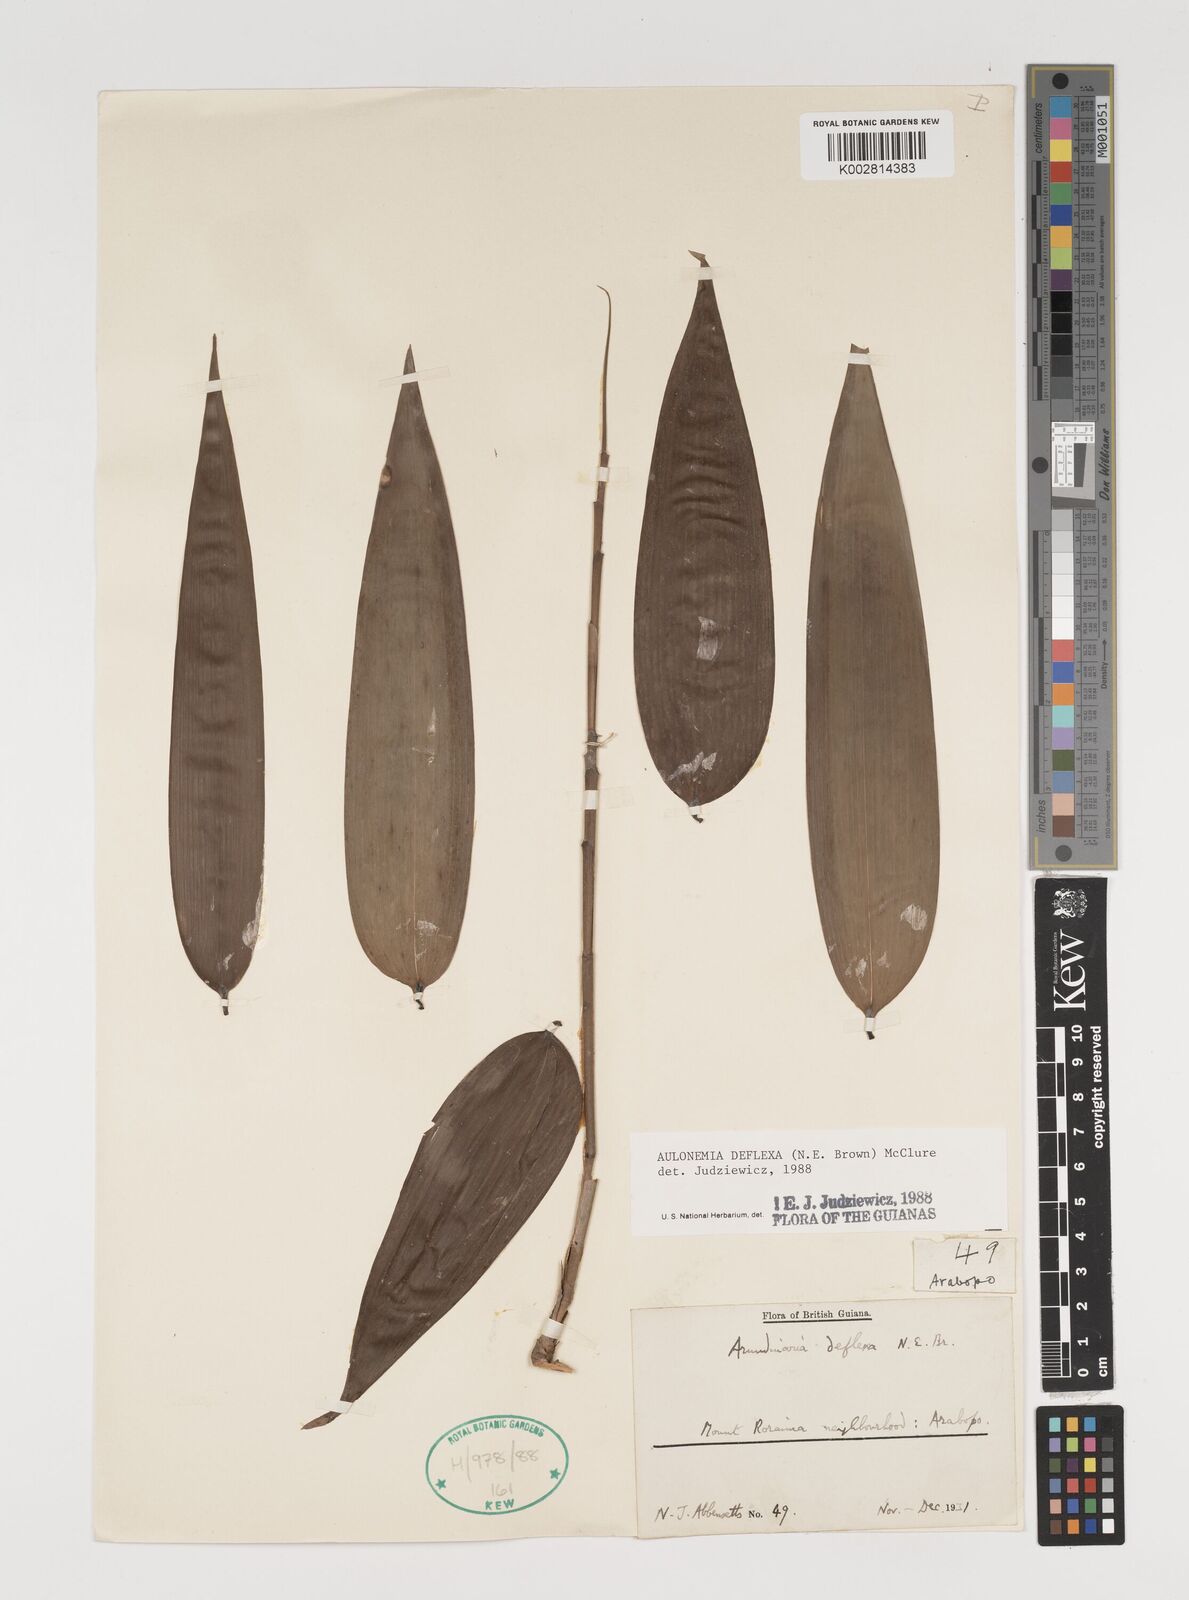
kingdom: Plantae
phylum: Tracheophyta
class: Liliopsida
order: Poales
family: Poaceae
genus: Aulonemia
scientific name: Aulonemia deflexa
